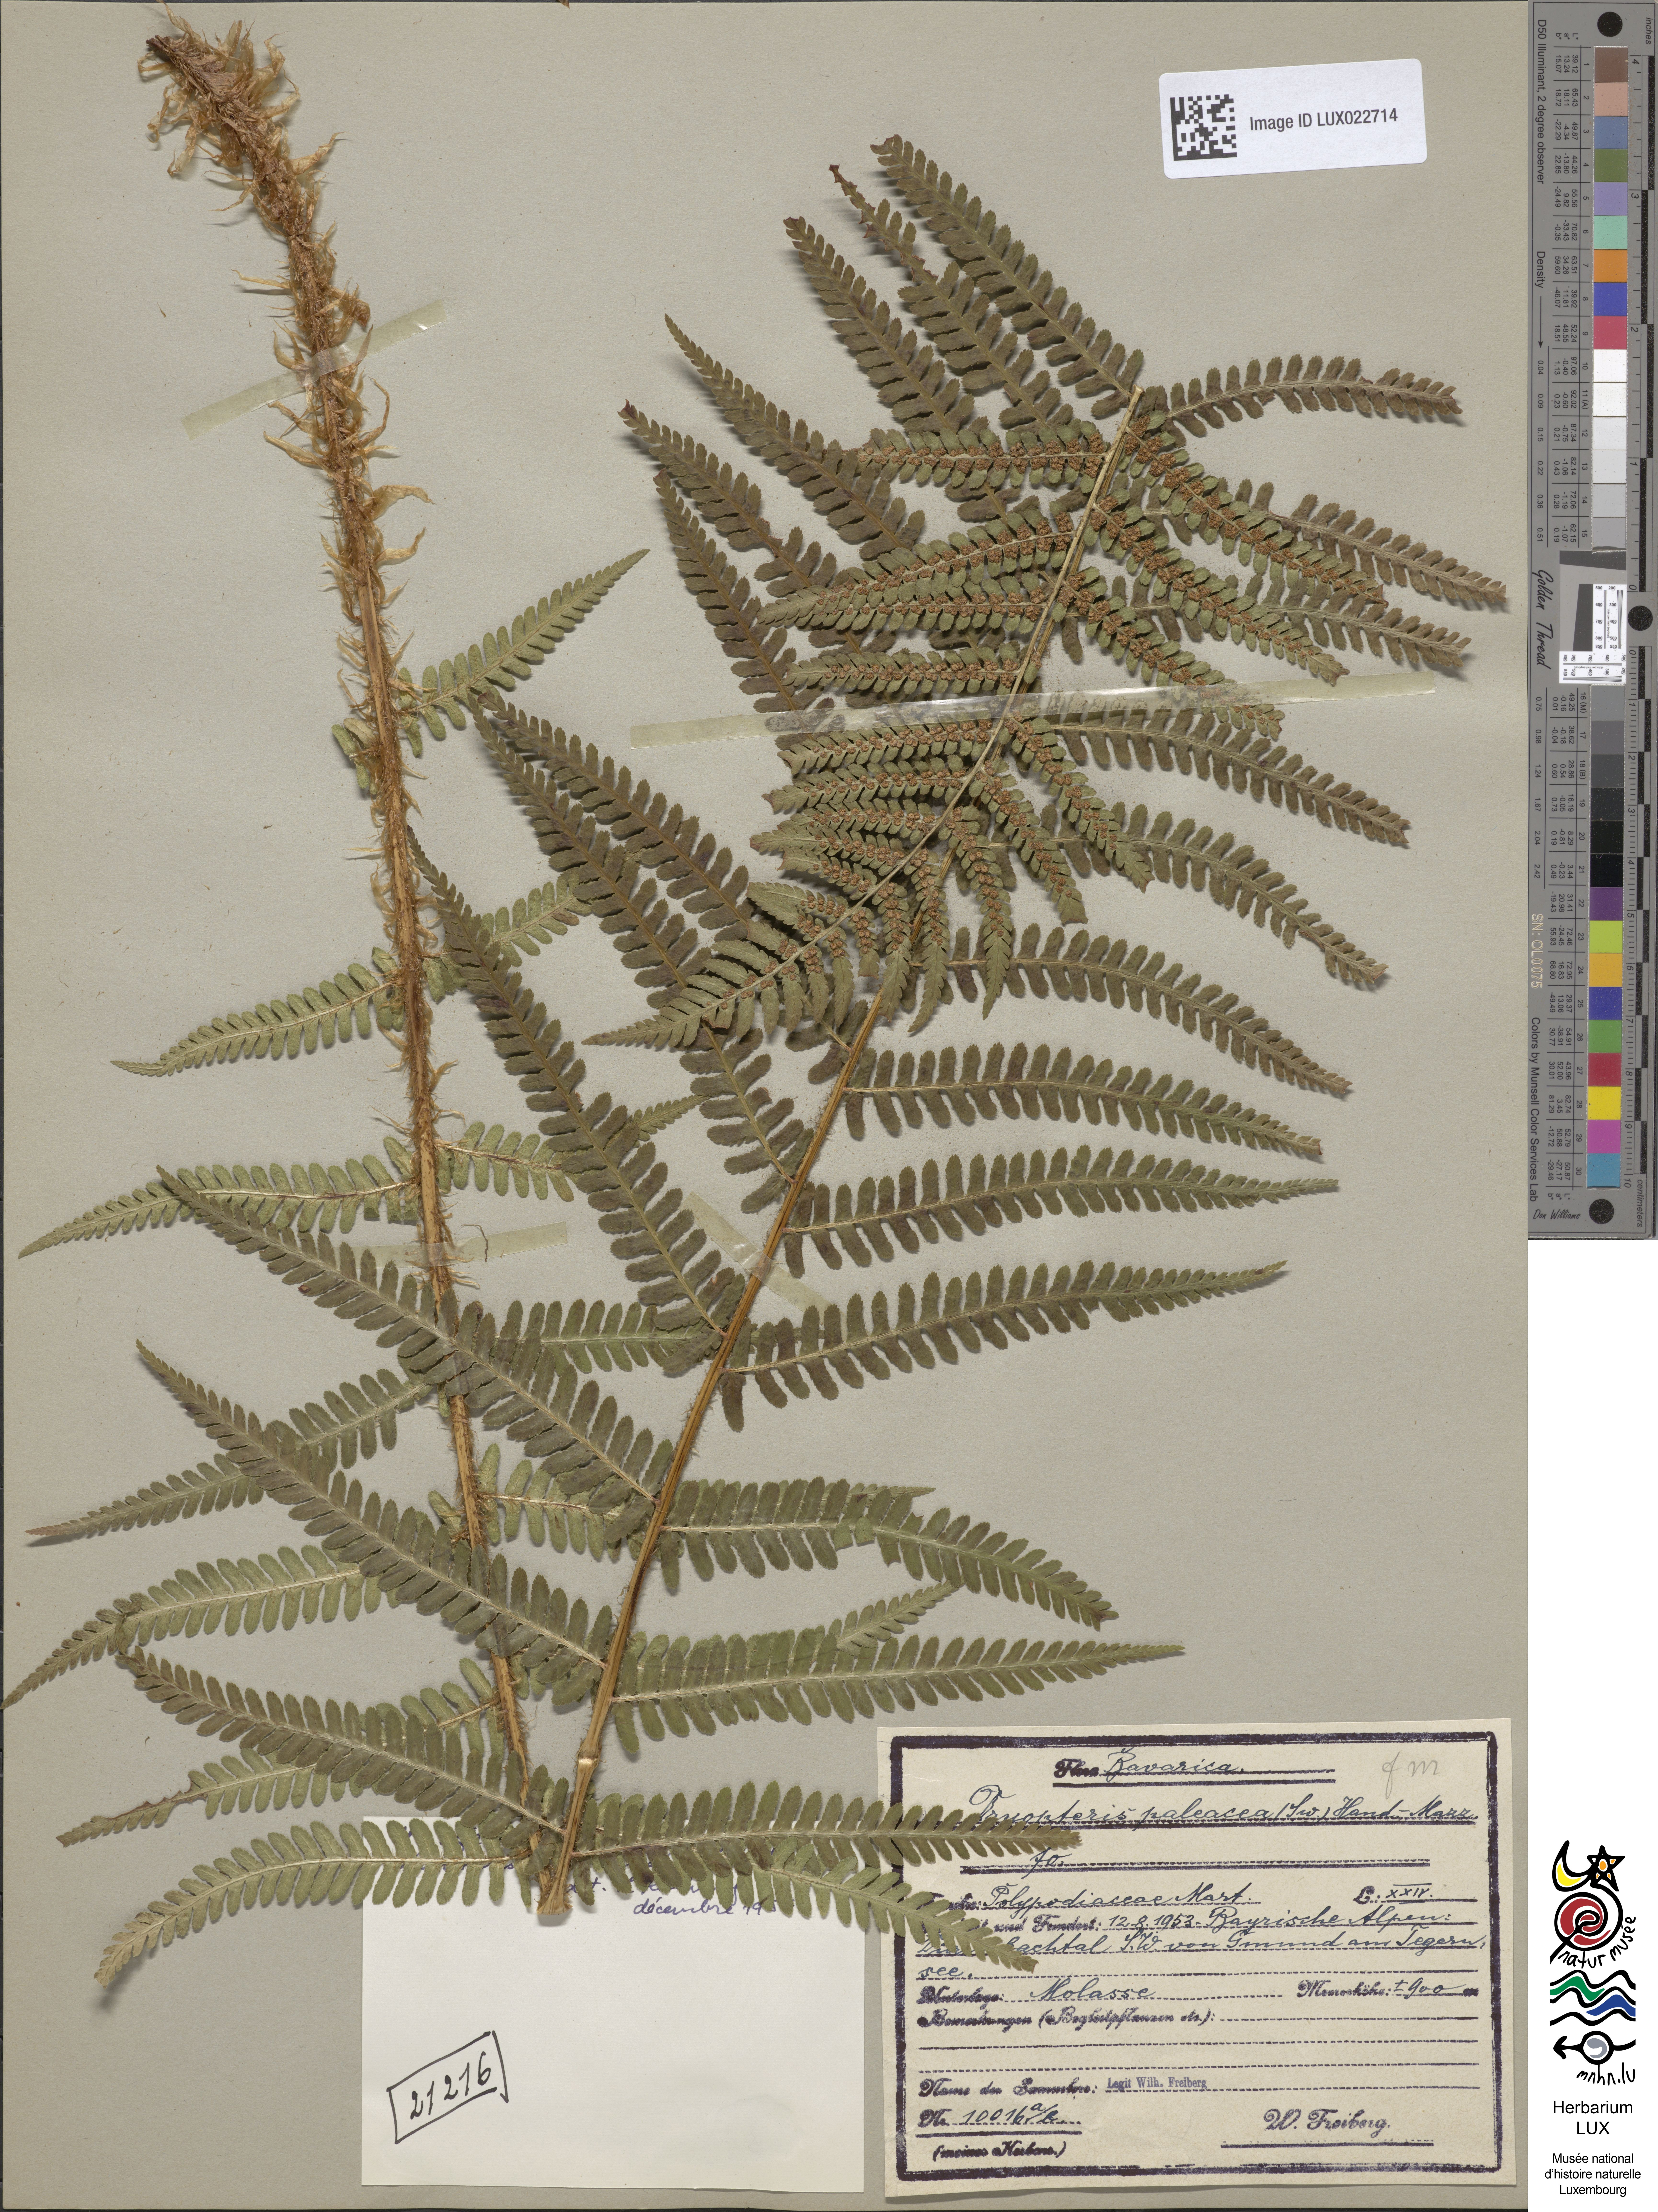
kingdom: Plantae
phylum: Tracheophyta
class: Polypodiopsida
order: Polypodiales
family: Dryopteridaceae
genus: Dryopteris
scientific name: Dryopteris filix-mas
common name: Male fern
